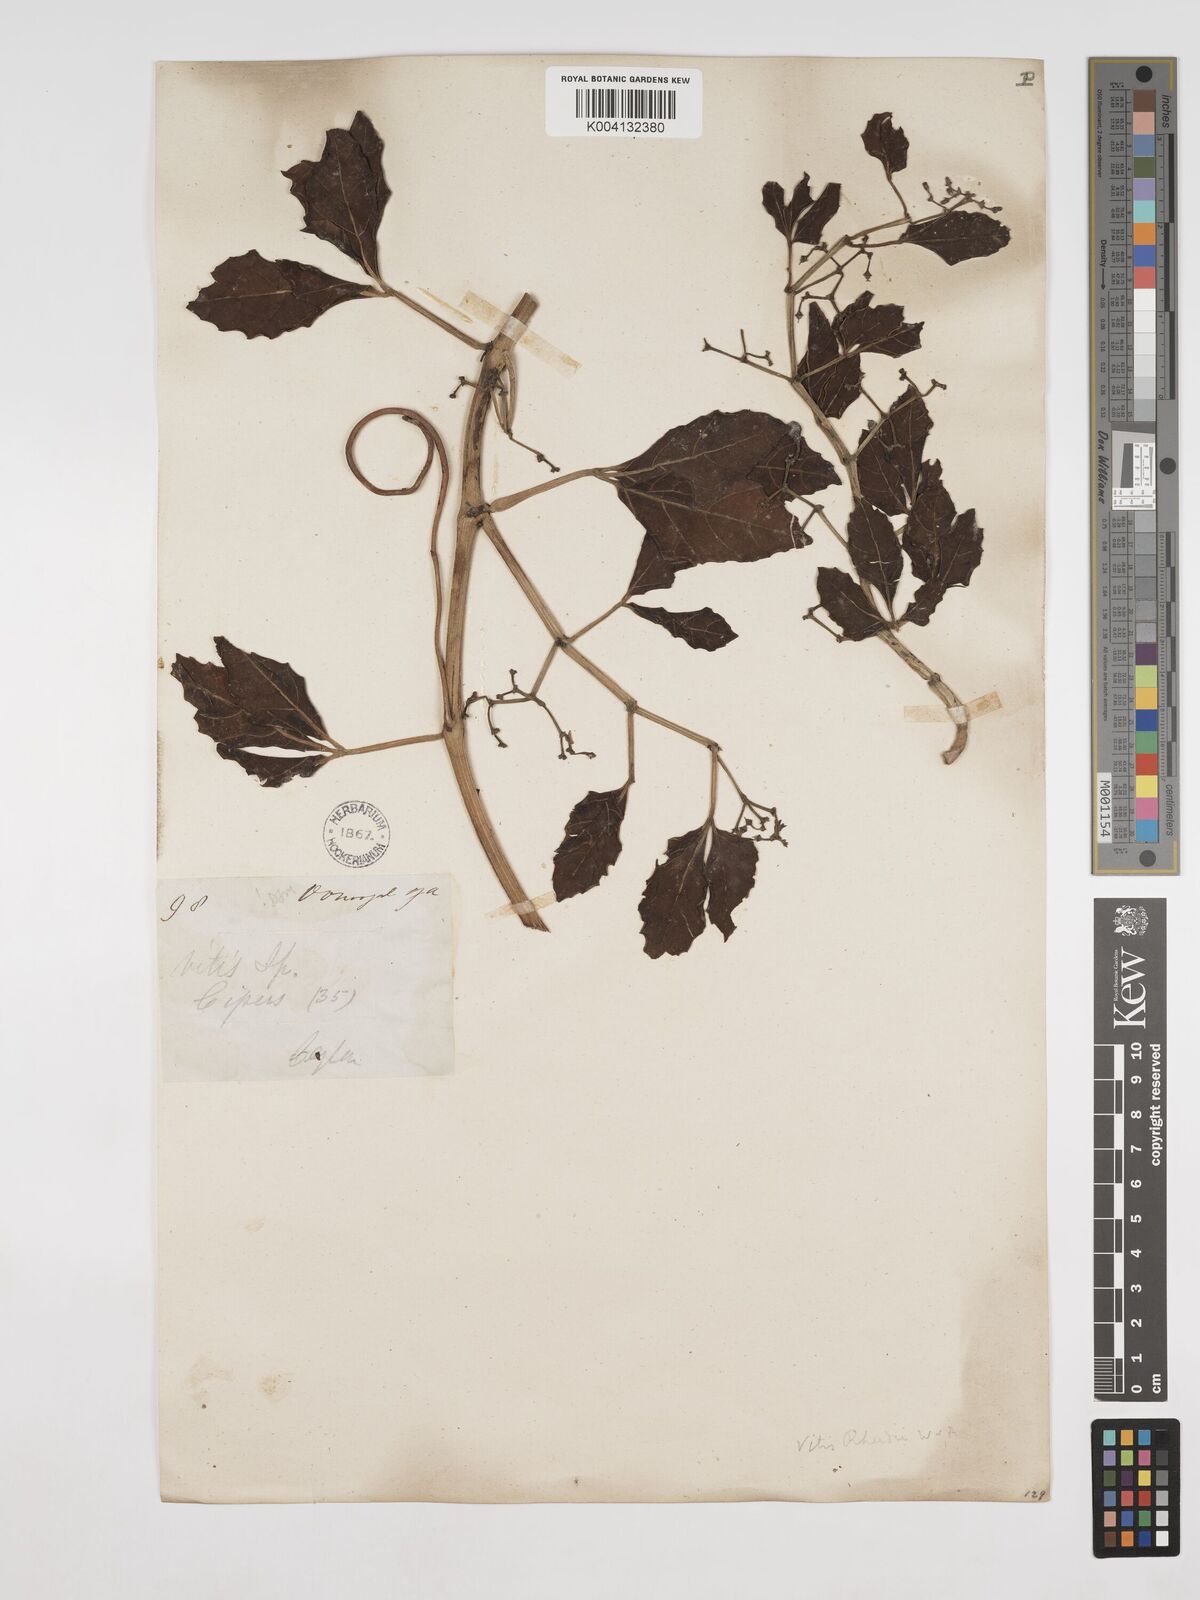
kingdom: Plantae
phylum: Tracheophyta
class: Magnoliopsida
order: Vitales
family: Vitaceae
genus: Cissus
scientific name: Cissus trilobata
